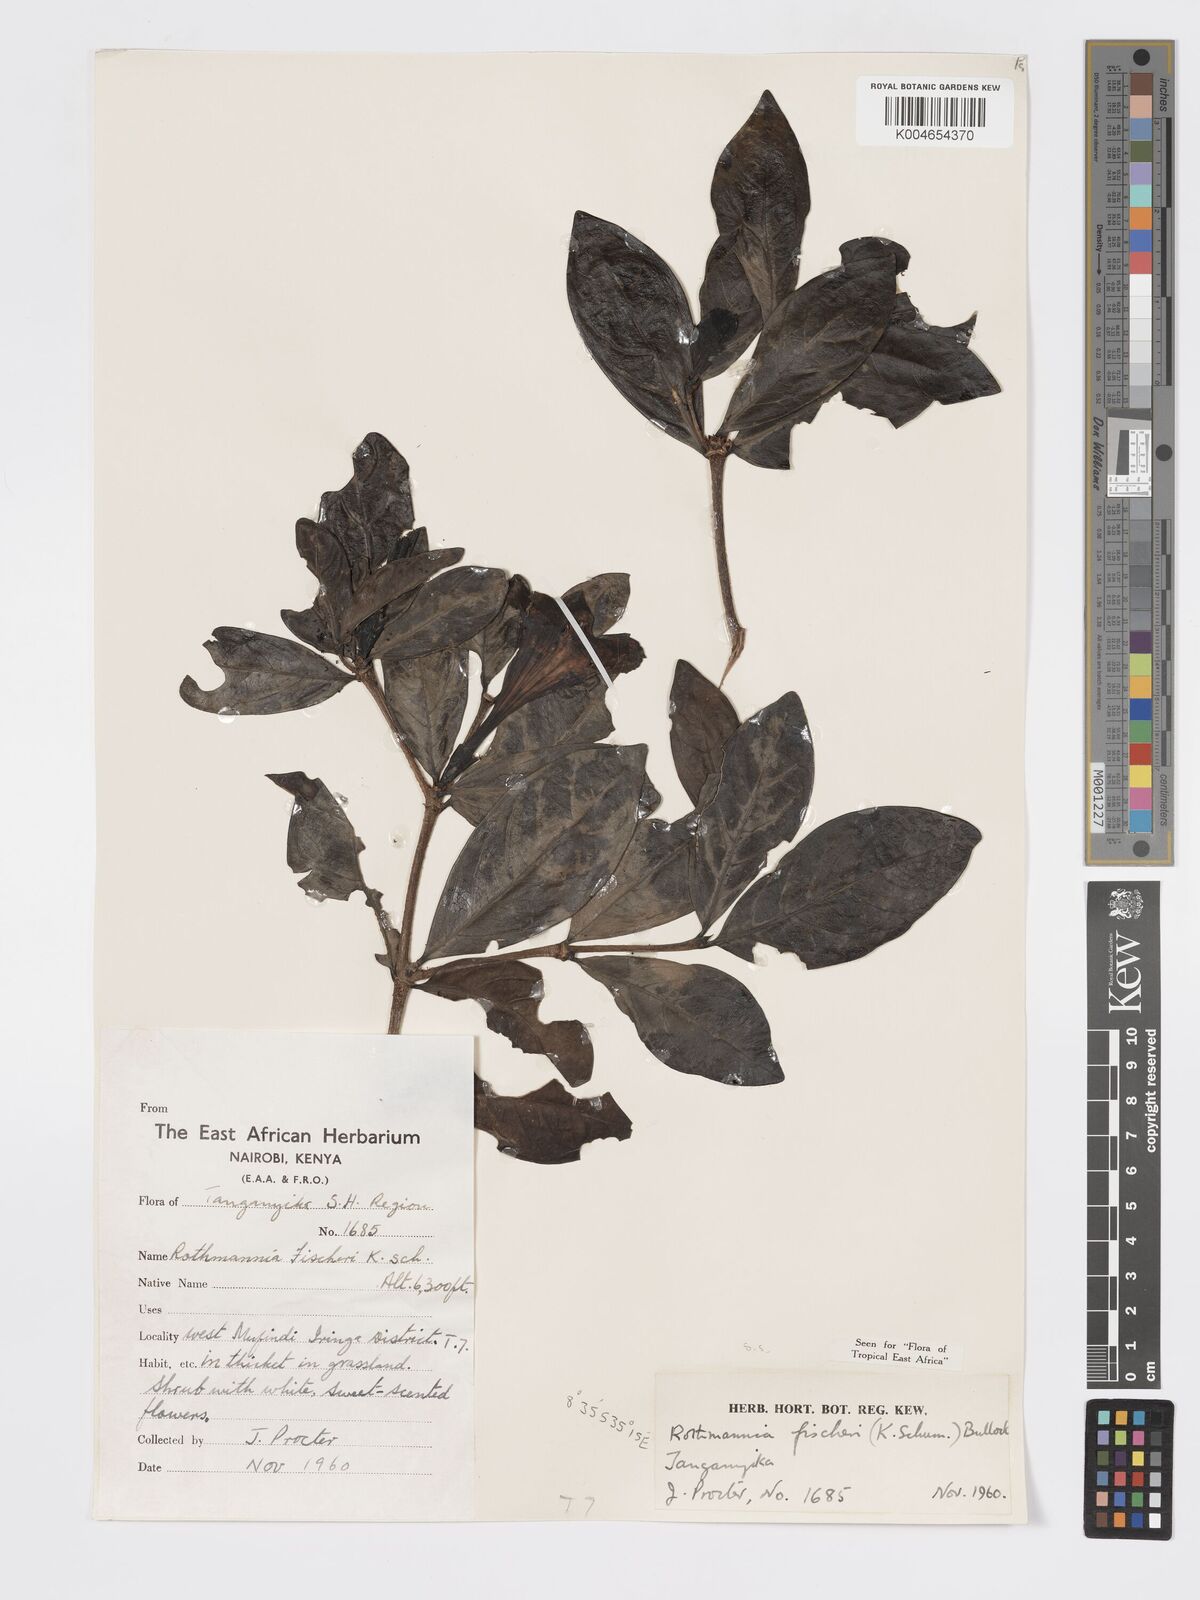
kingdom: Plantae
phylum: Tracheophyta
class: Magnoliopsida
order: Gentianales
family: Rubiaceae
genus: Rothmannia
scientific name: Rothmannia fischeri
